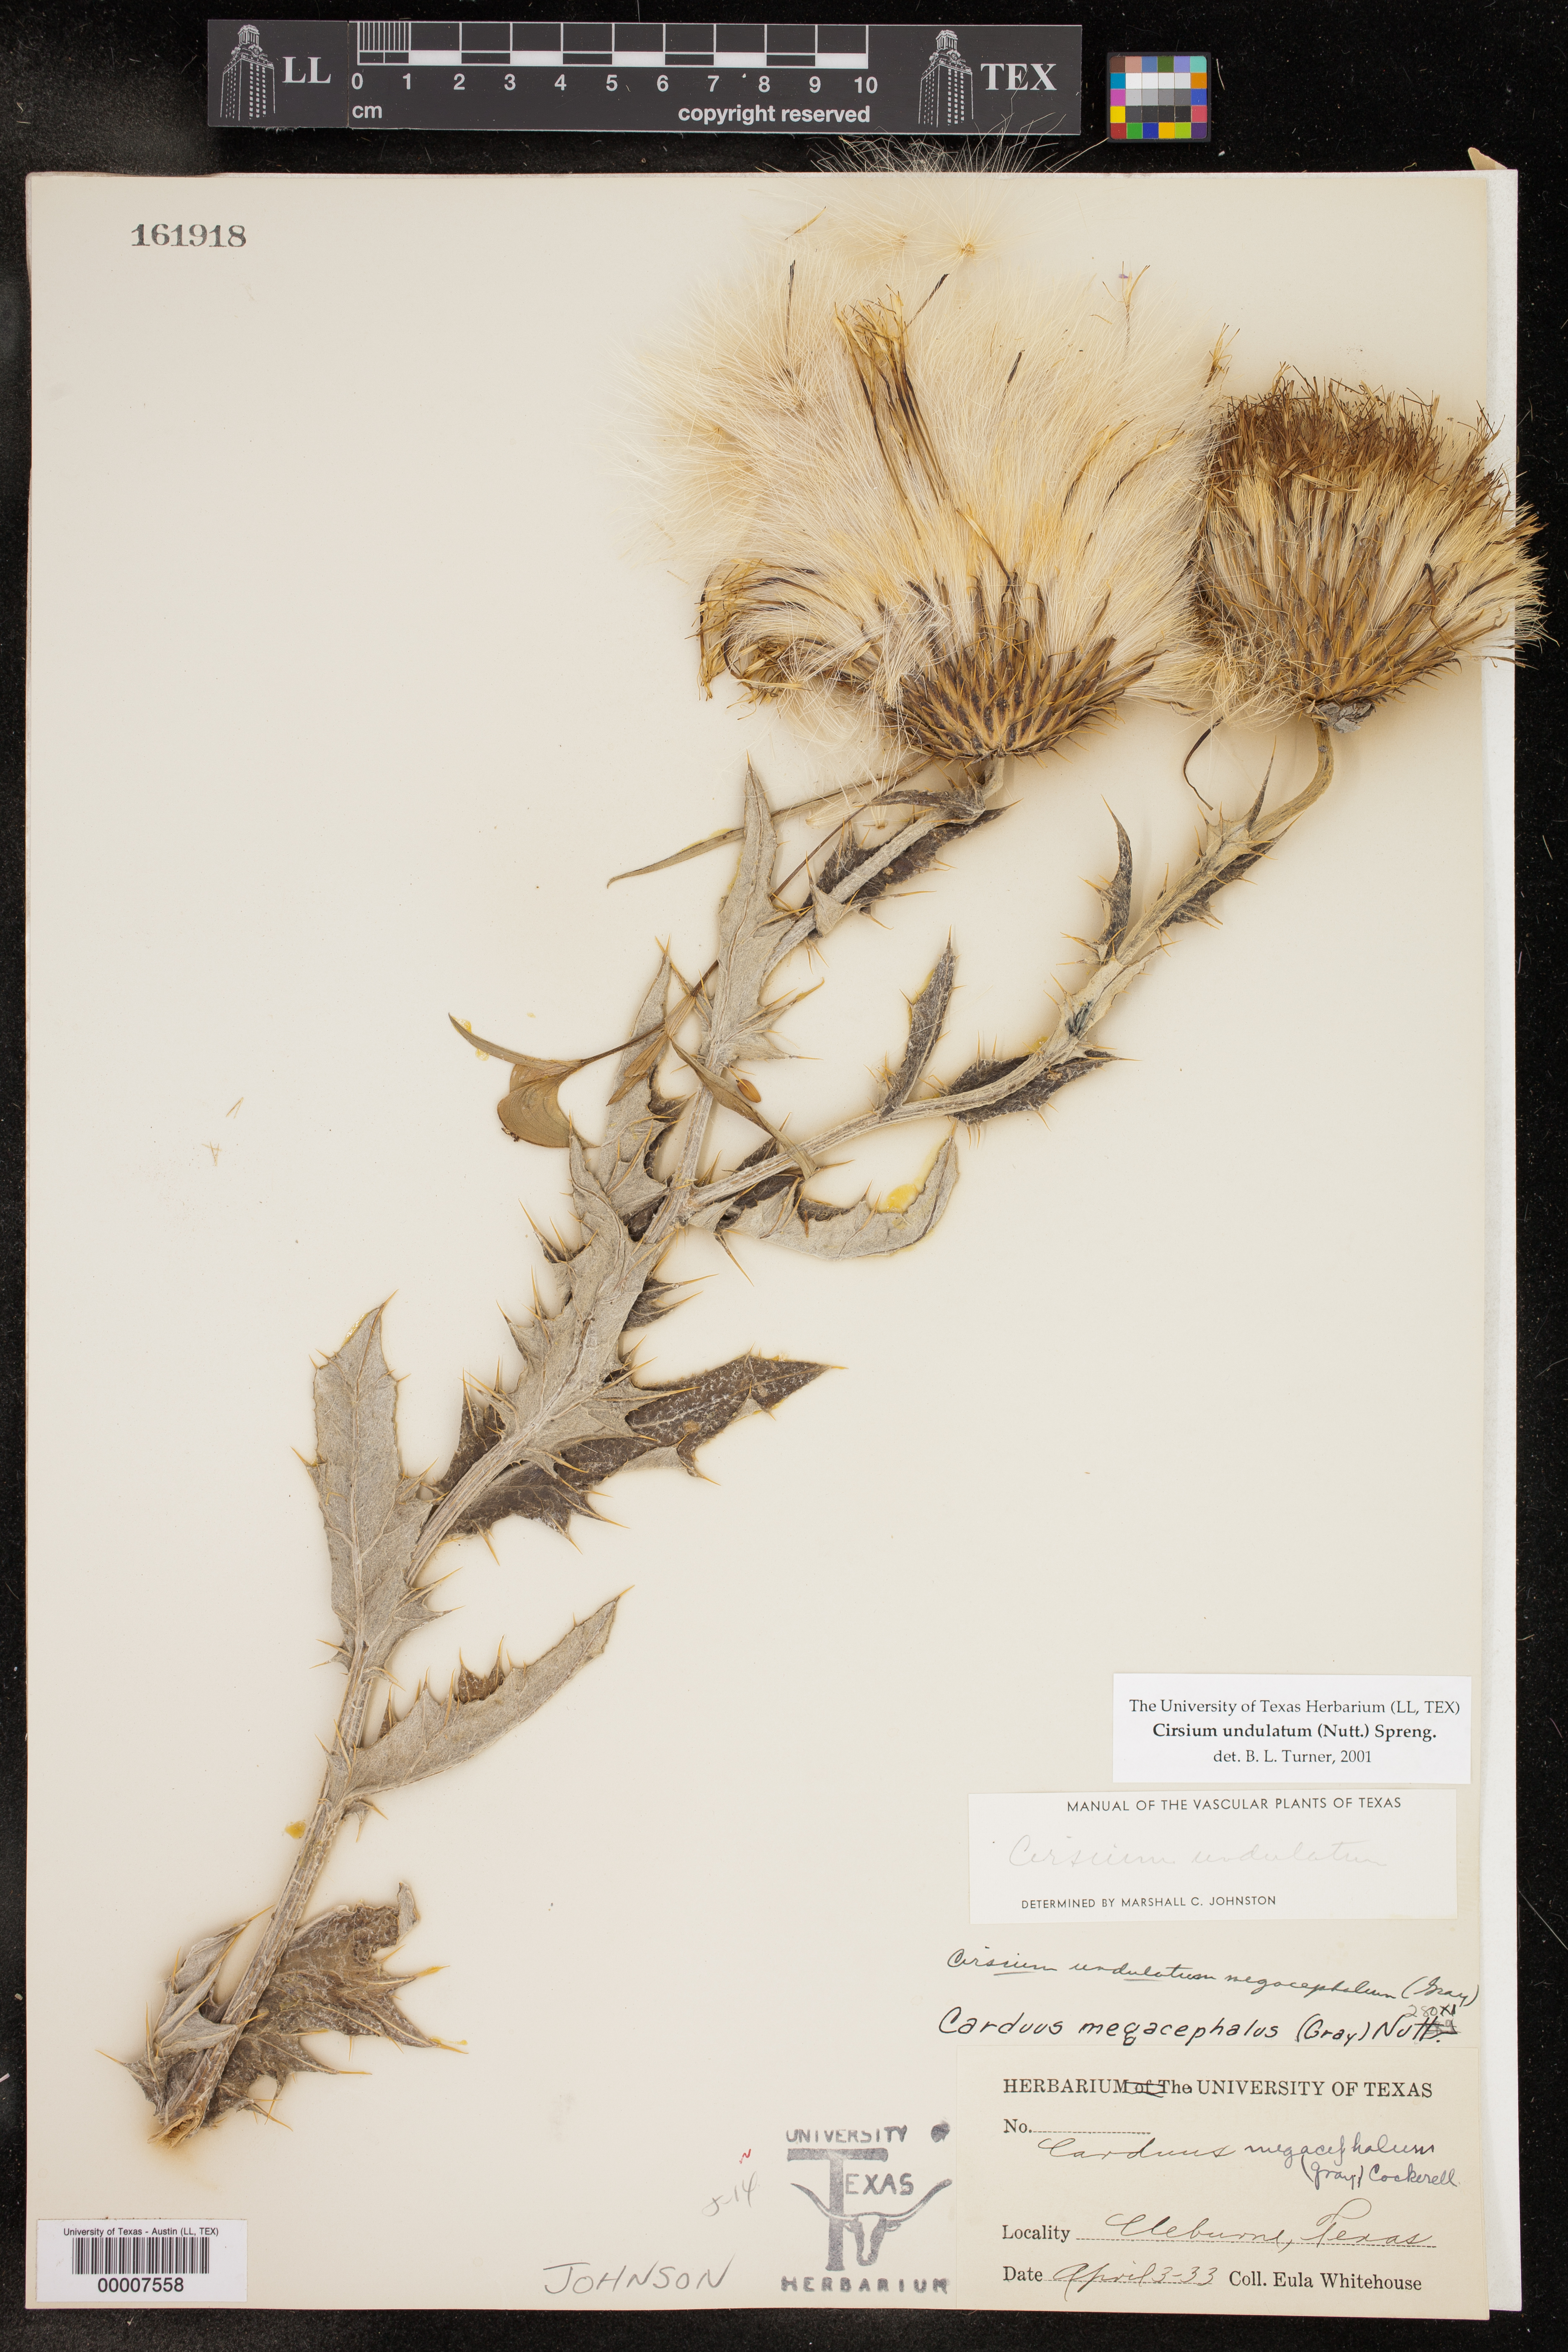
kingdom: Plantae
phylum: Tracheophyta
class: Magnoliopsida
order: Asterales
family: Asteraceae
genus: Cirsium
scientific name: Cirsium undulatum
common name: Pasture thistle
